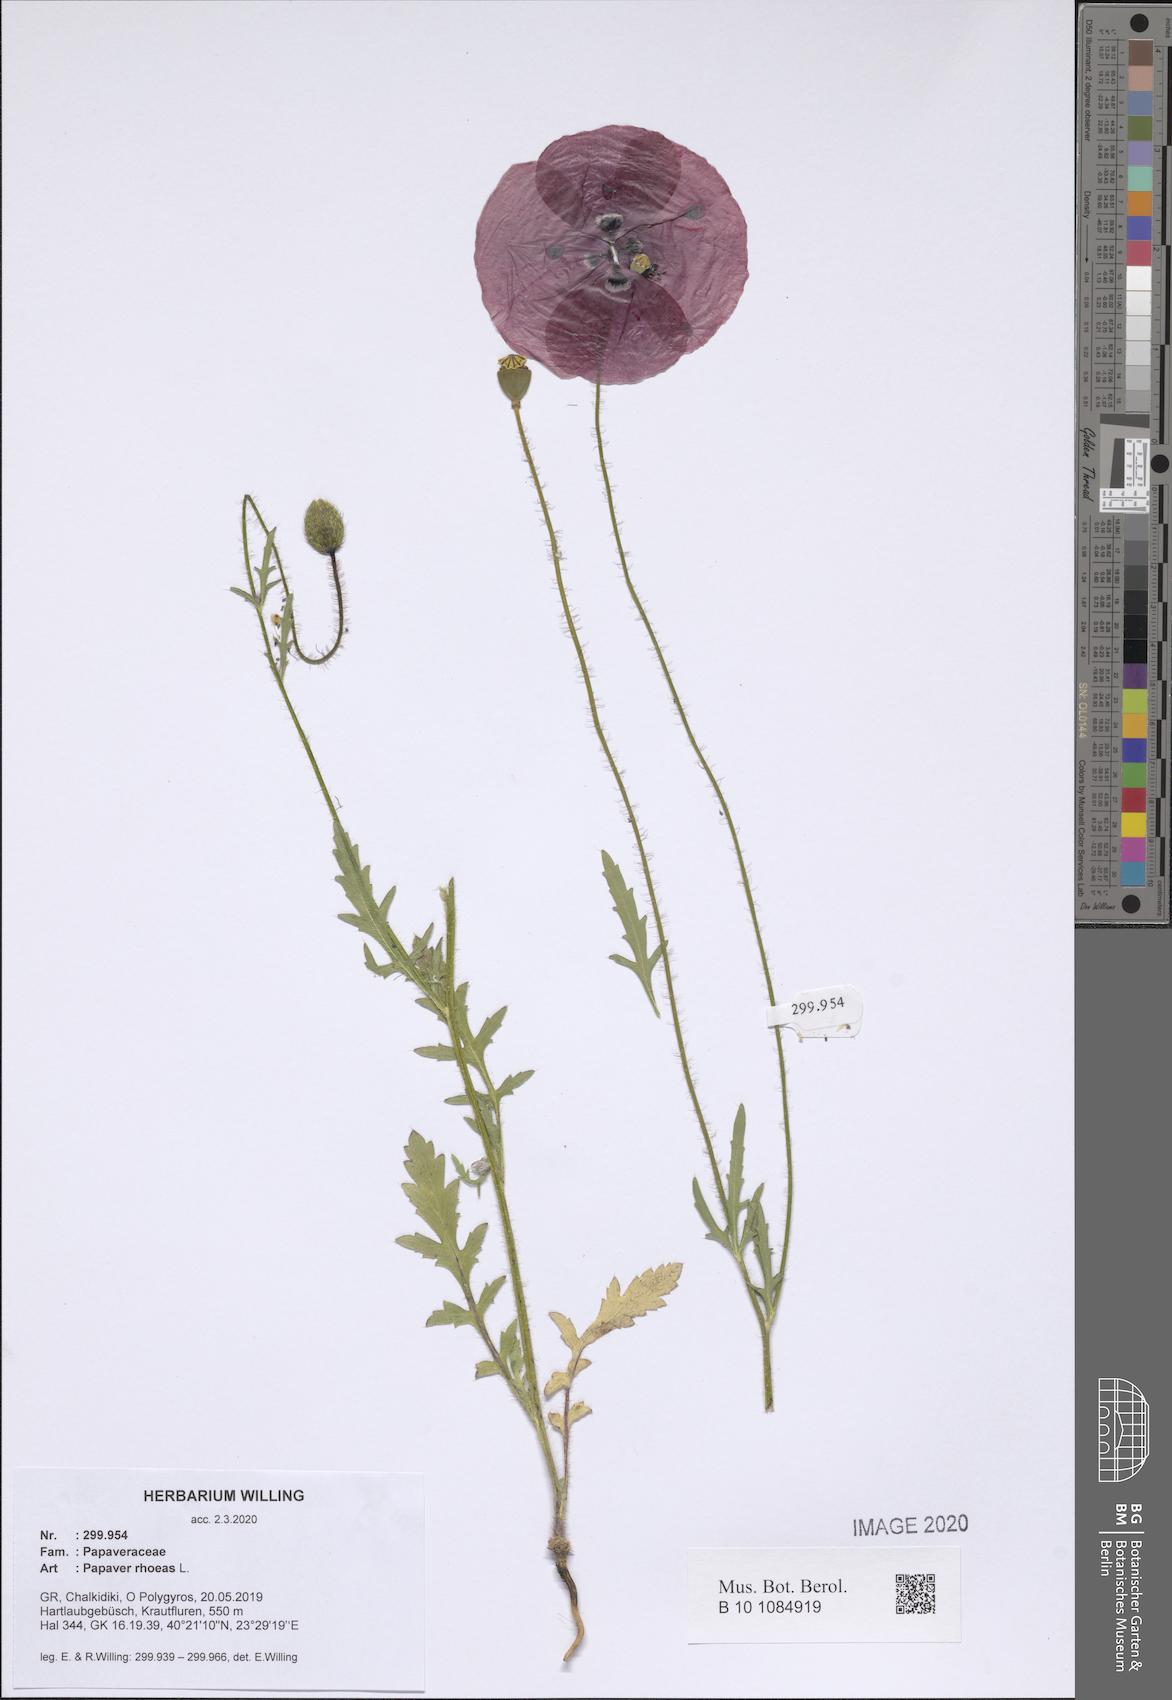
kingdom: Plantae
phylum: Tracheophyta
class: Magnoliopsida
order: Ranunculales
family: Papaveraceae
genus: Papaver
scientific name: Papaver rhoeas
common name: Corn poppy
